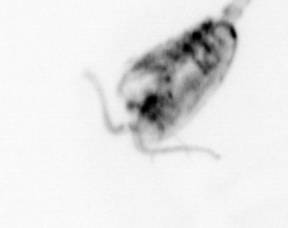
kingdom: Animalia
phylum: Arthropoda
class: Copepoda
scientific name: Copepoda
